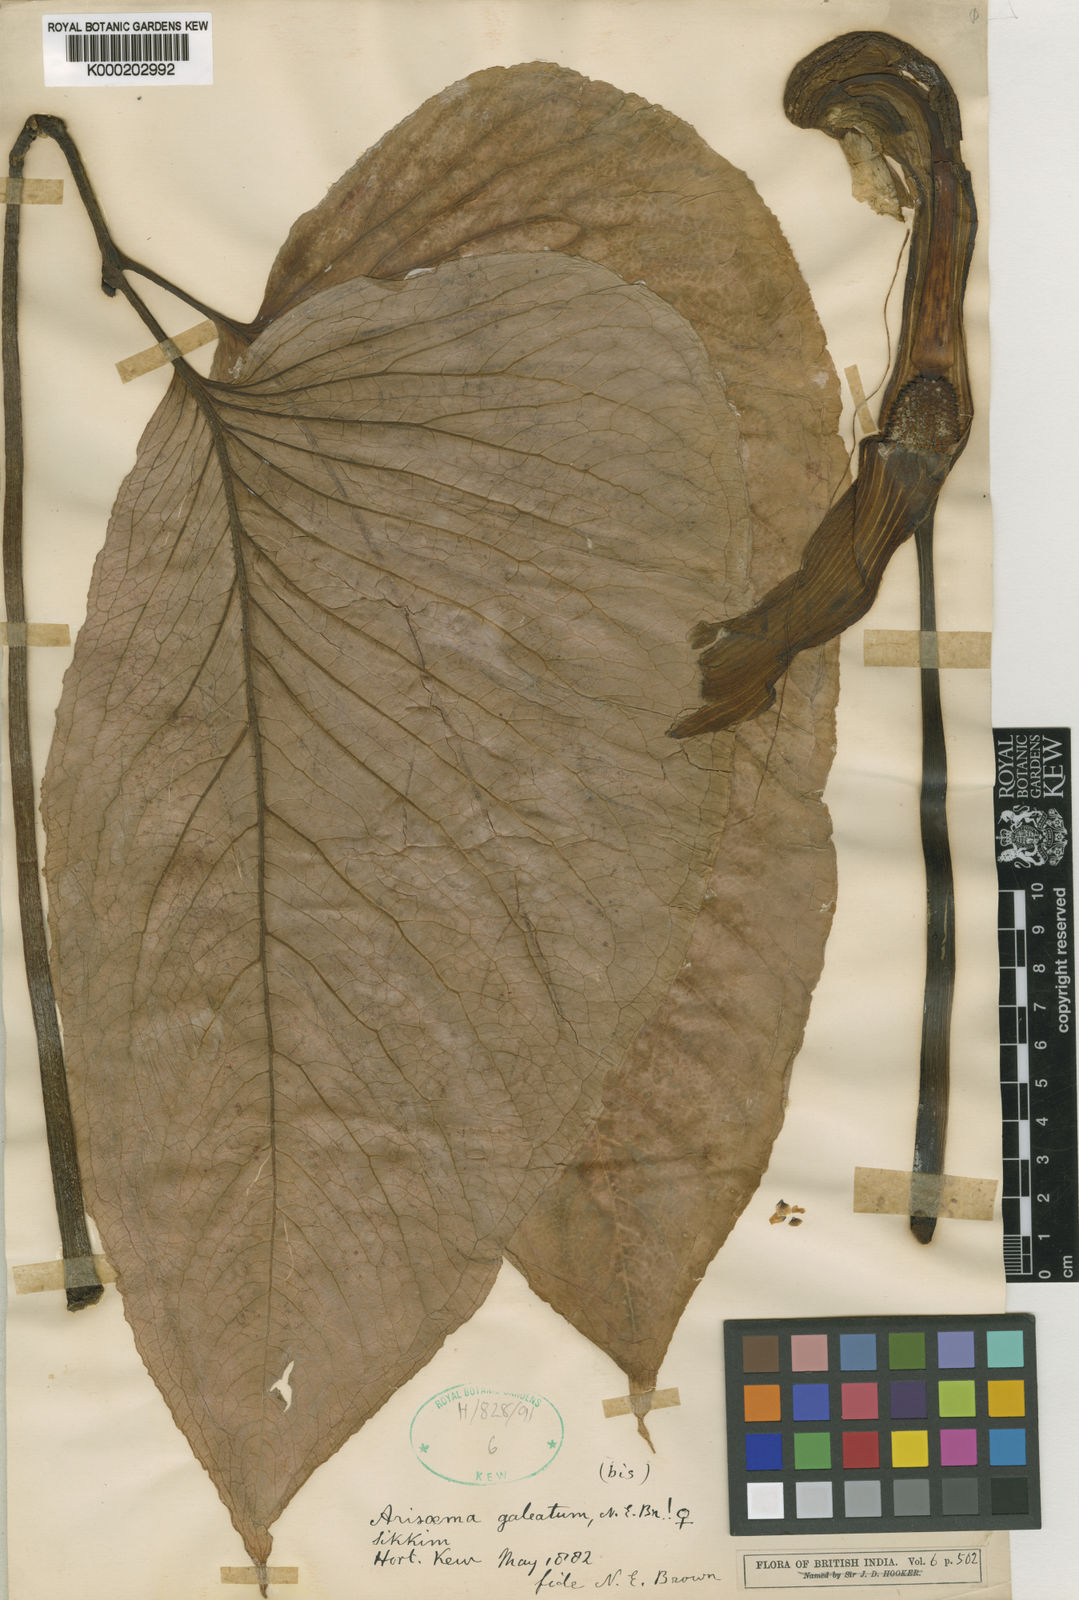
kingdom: Plantae
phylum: Tracheophyta
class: Liliopsida
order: Alismatales
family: Araceae
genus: Arisaema
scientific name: Arisaema galeatum
